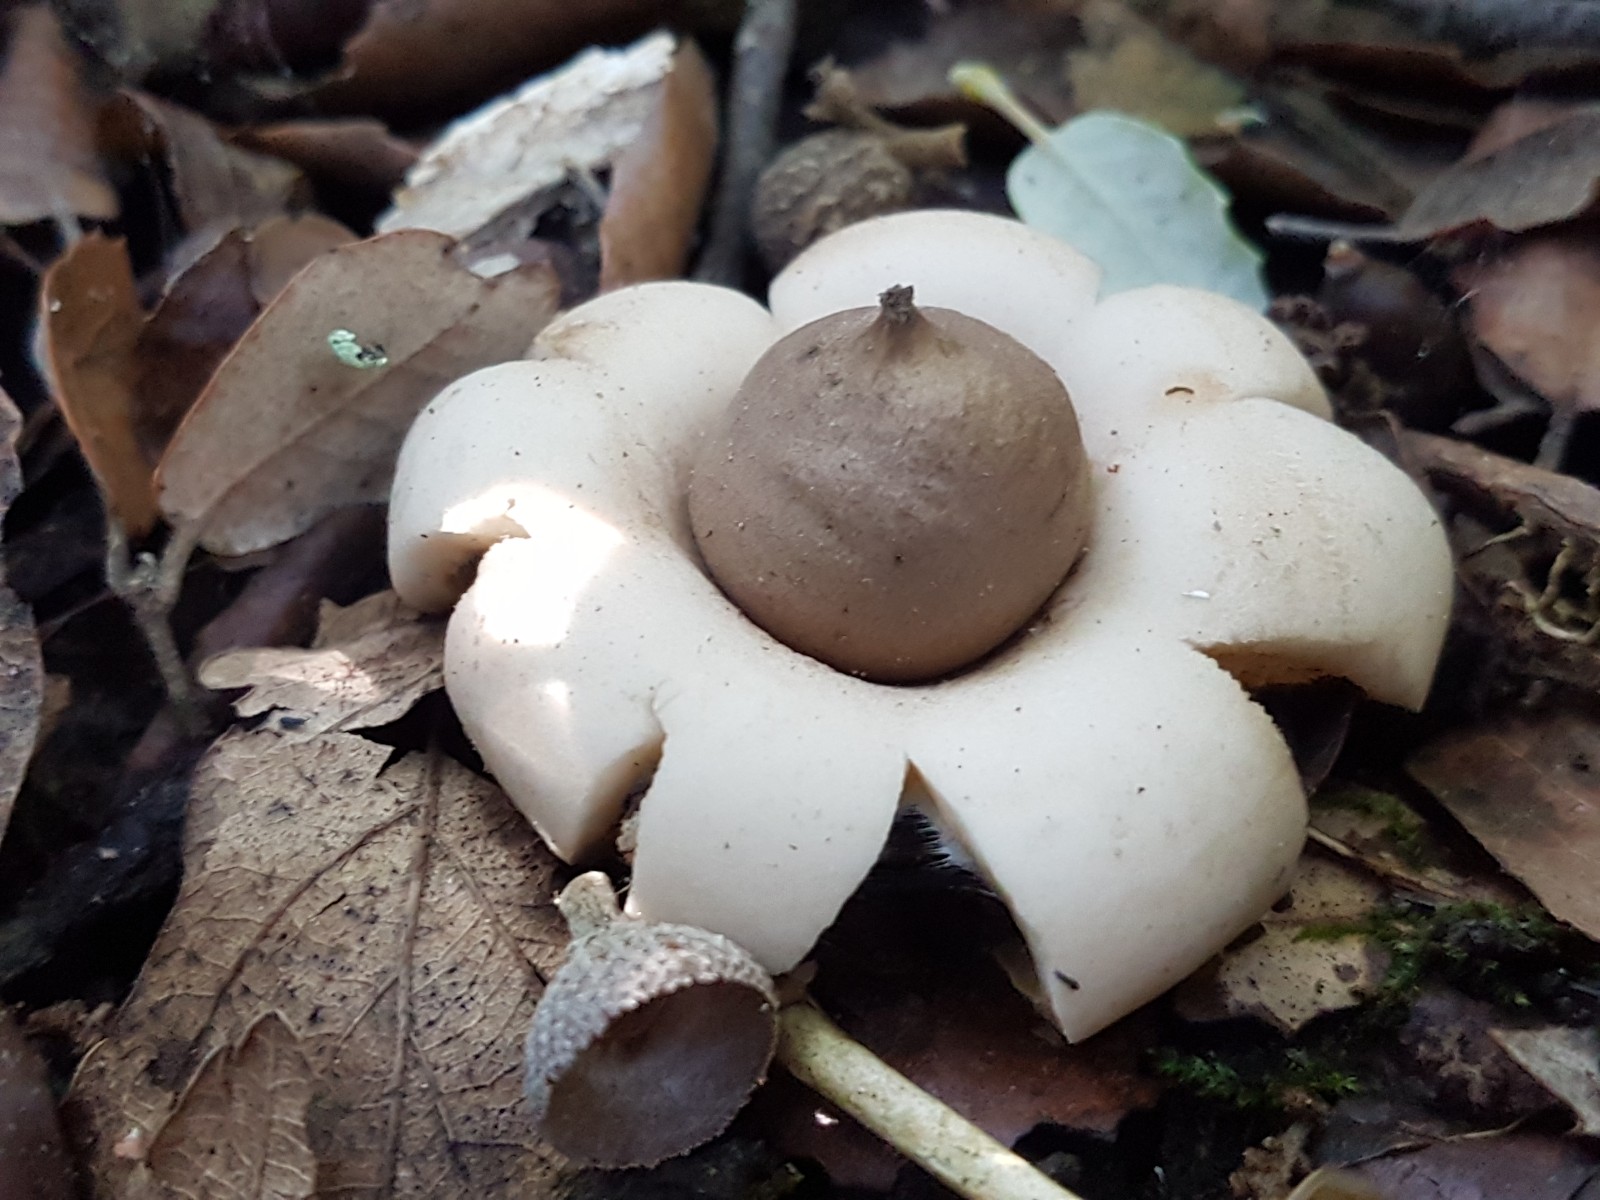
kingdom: Fungi
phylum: Basidiomycota
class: Agaricomycetes
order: Geastrales
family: Geastraceae
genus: Geastrum
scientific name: Geastrum
